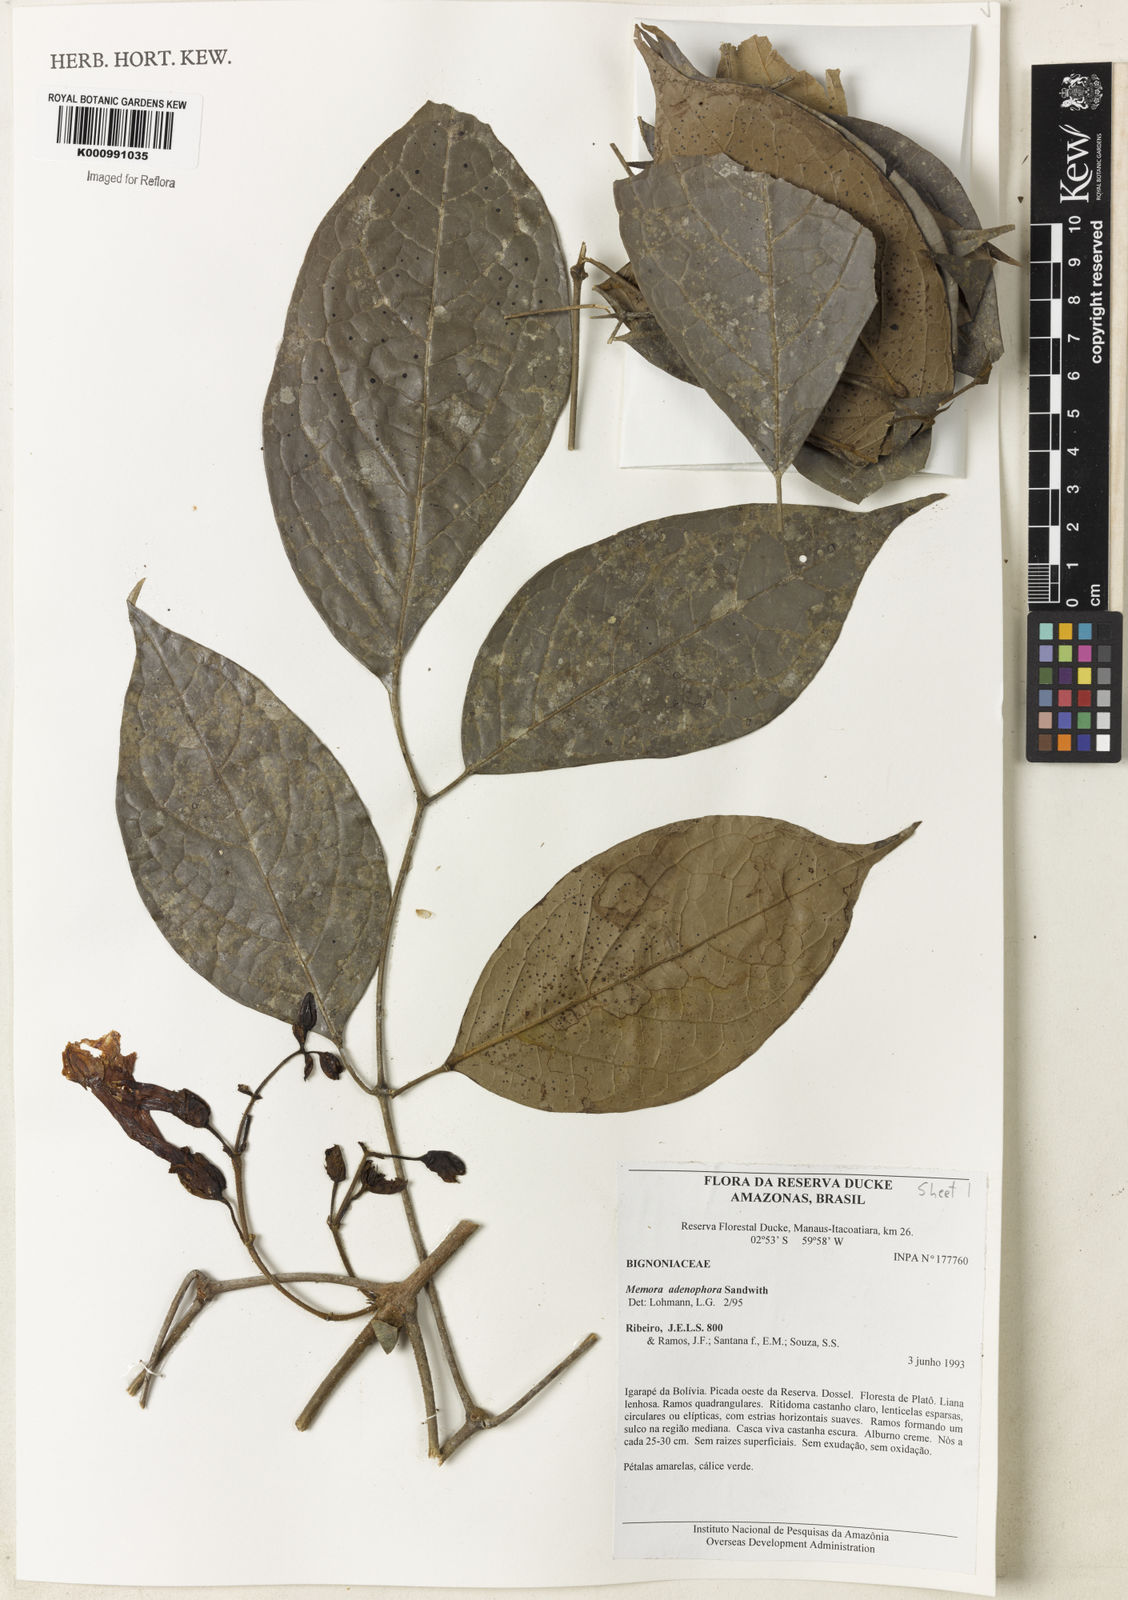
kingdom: Plantae
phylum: Tracheophyta
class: Magnoliopsida
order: Lamiales
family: Bignoniaceae
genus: Adenocalymma
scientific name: Adenocalymma adenophorum
